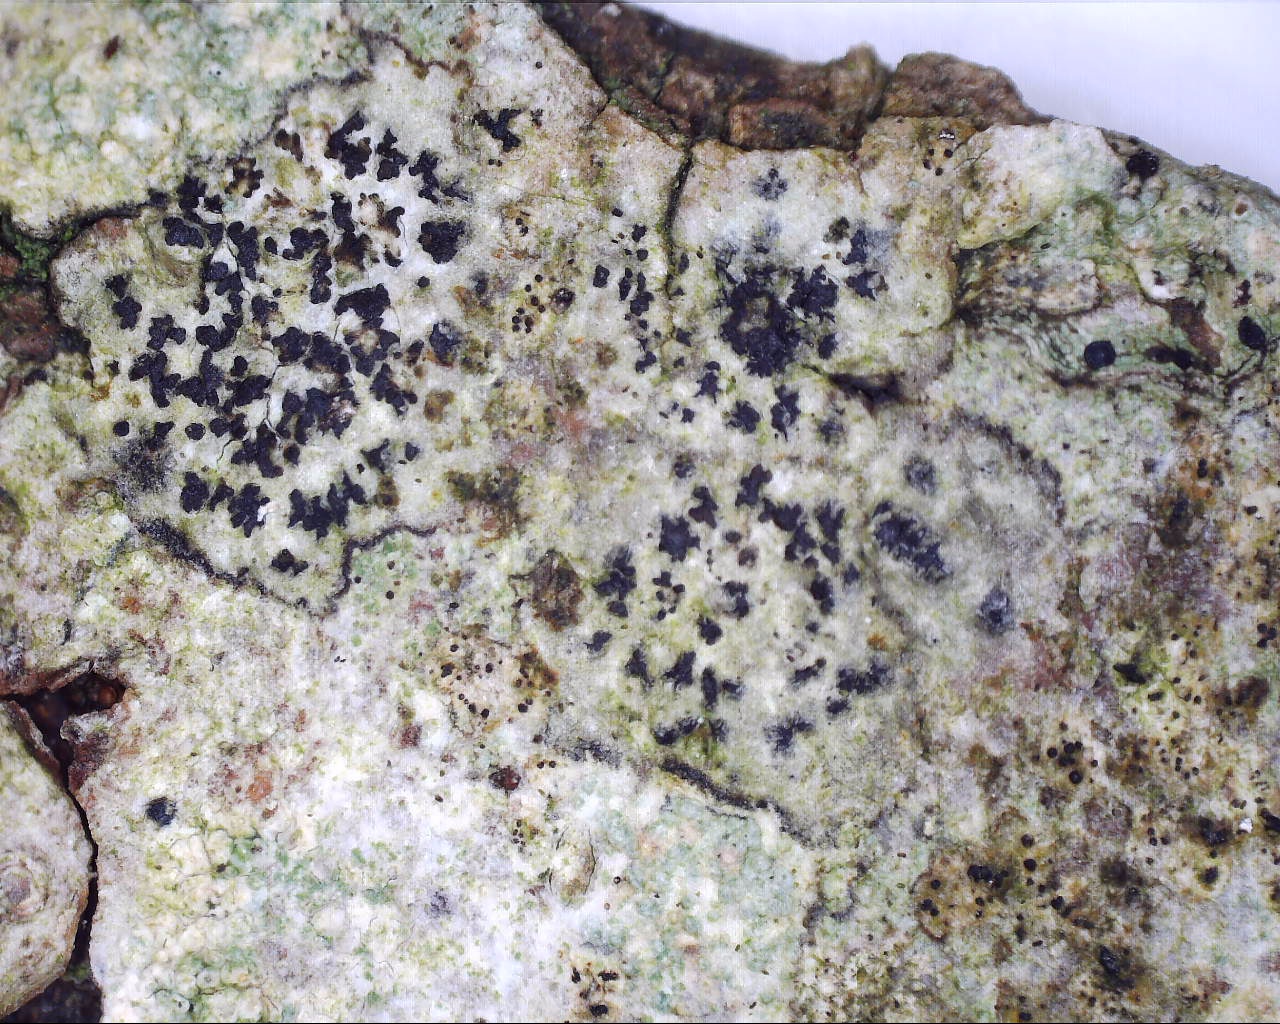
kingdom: Fungi
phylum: Ascomycota
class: Arthoniomycetes
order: Arthoniales
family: Arthoniaceae
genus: Arthonia
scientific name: Arthonia radiata
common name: stjerne-pletlav
